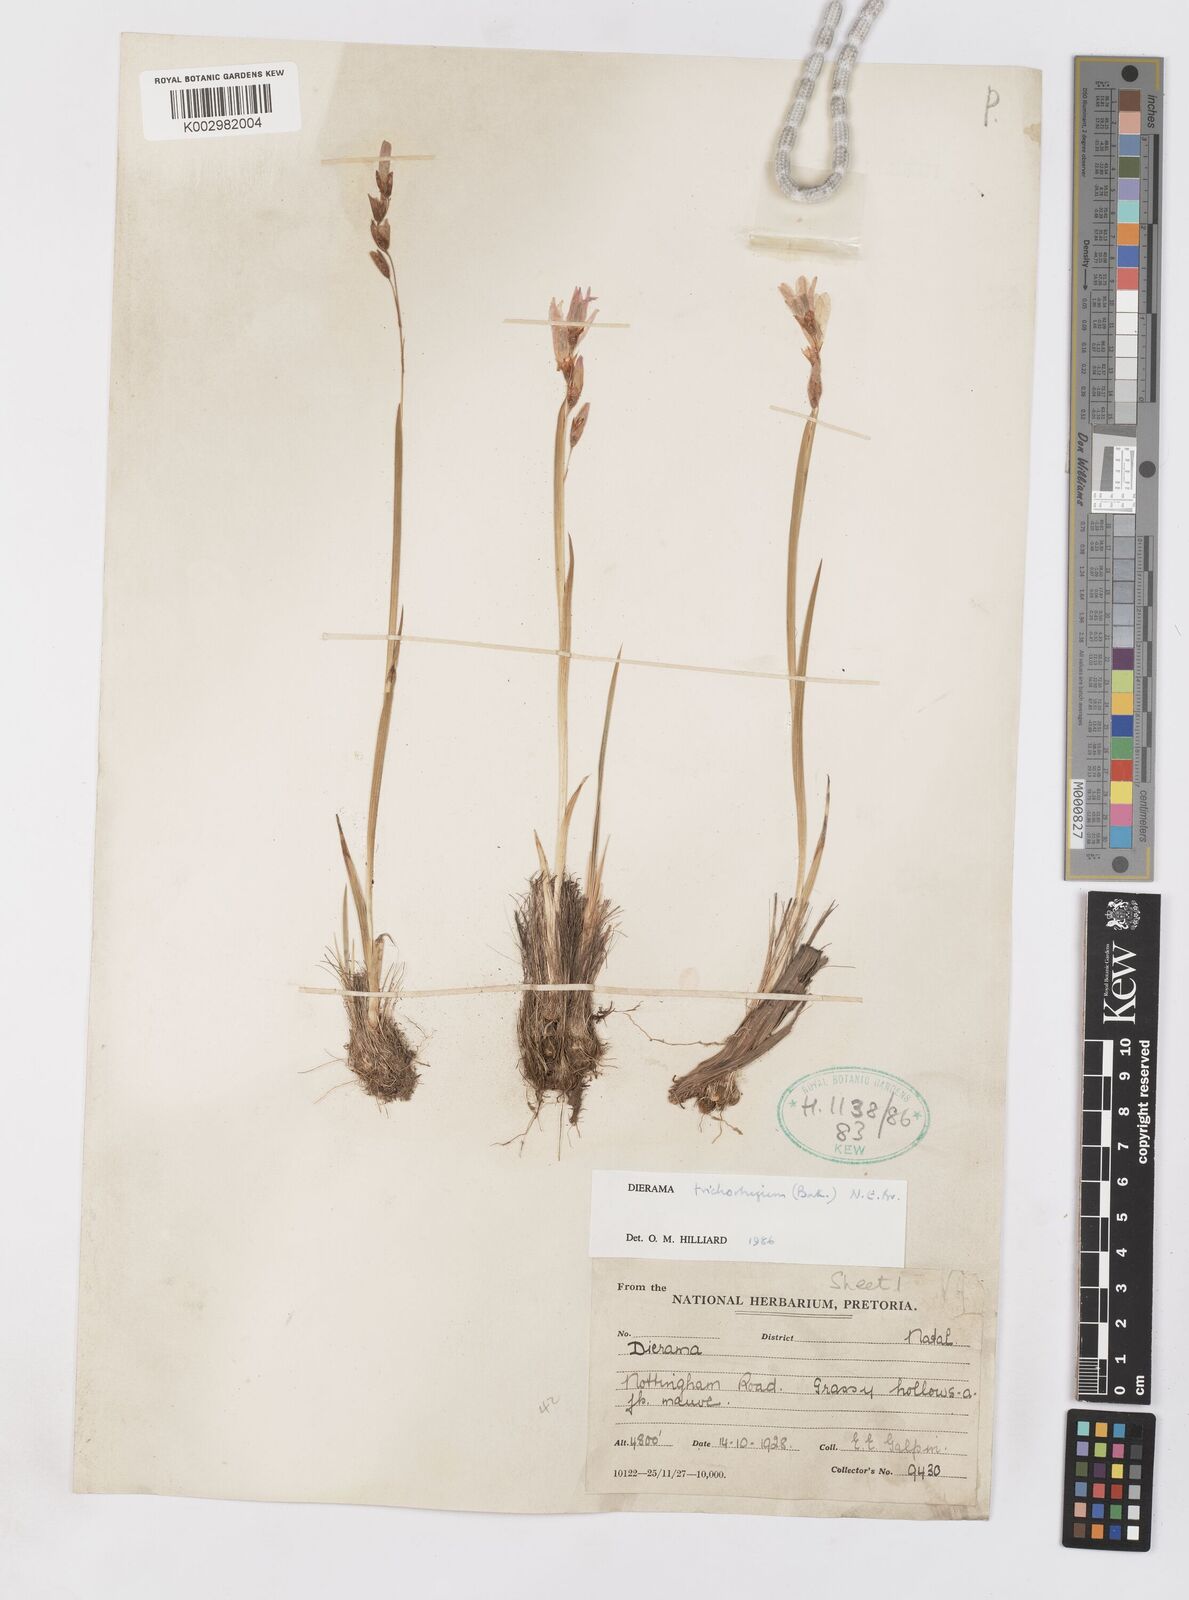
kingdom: Plantae
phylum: Tracheophyta
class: Liliopsida
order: Asparagales
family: Iridaceae
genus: Dierama
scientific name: Dierama trichorhizum
